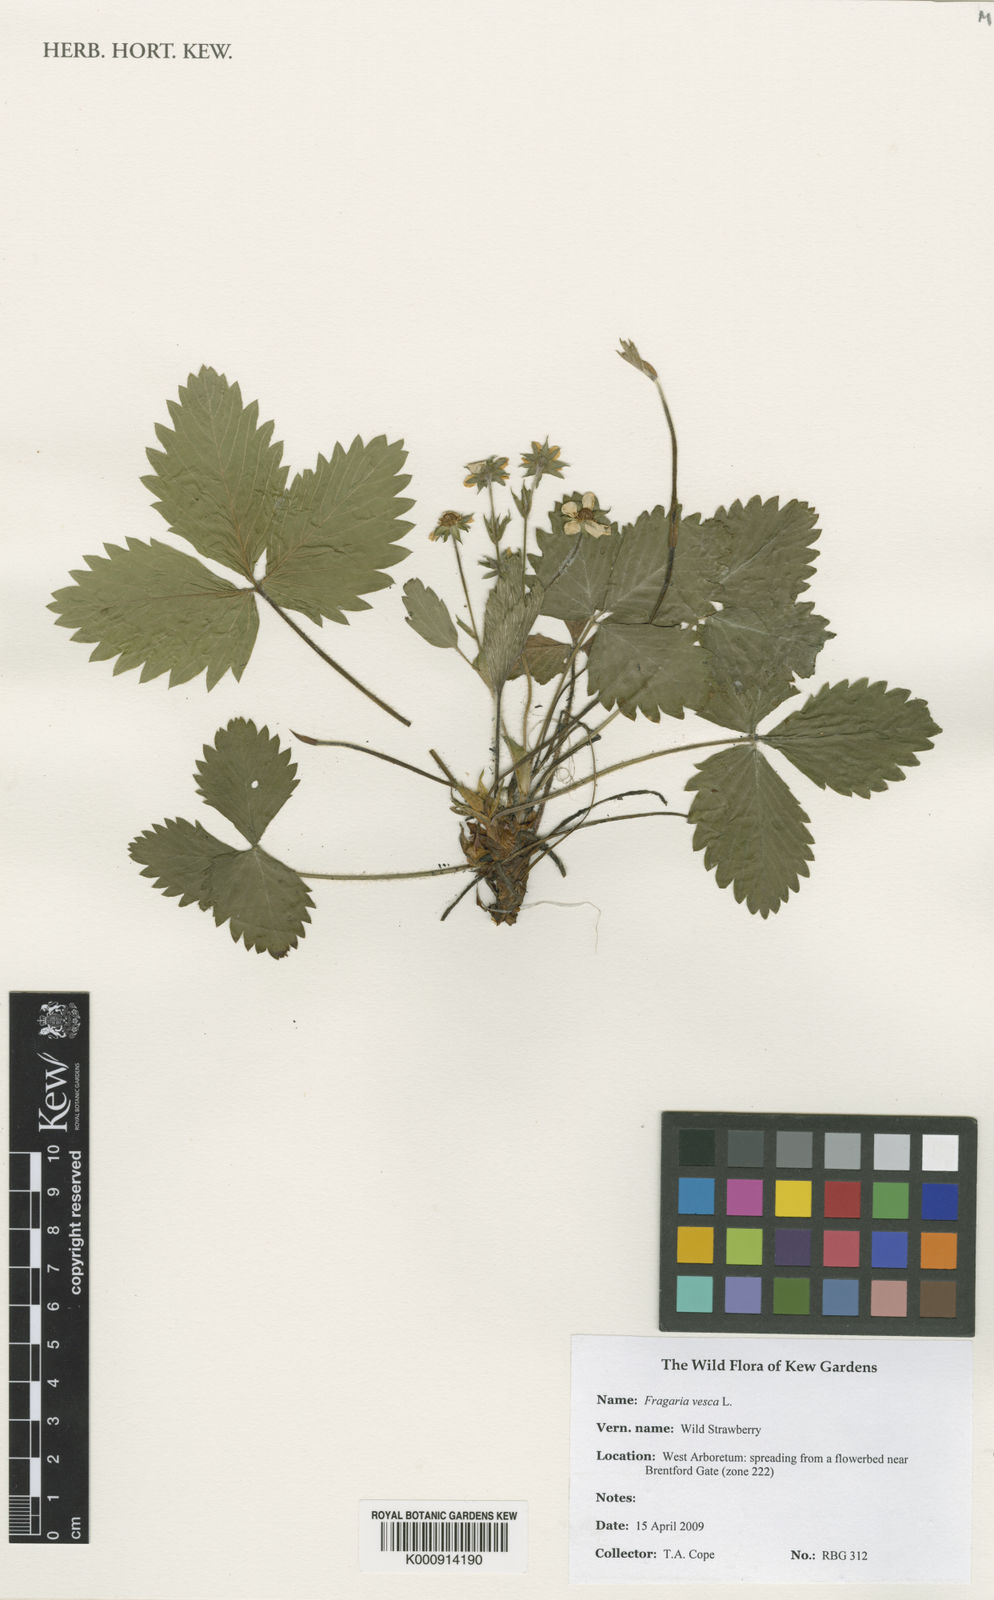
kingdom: Plantae
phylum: Tracheophyta
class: Magnoliopsida
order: Rosales
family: Rosaceae
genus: Fragaria
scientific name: Fragaria vesca
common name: Wild strawberry
